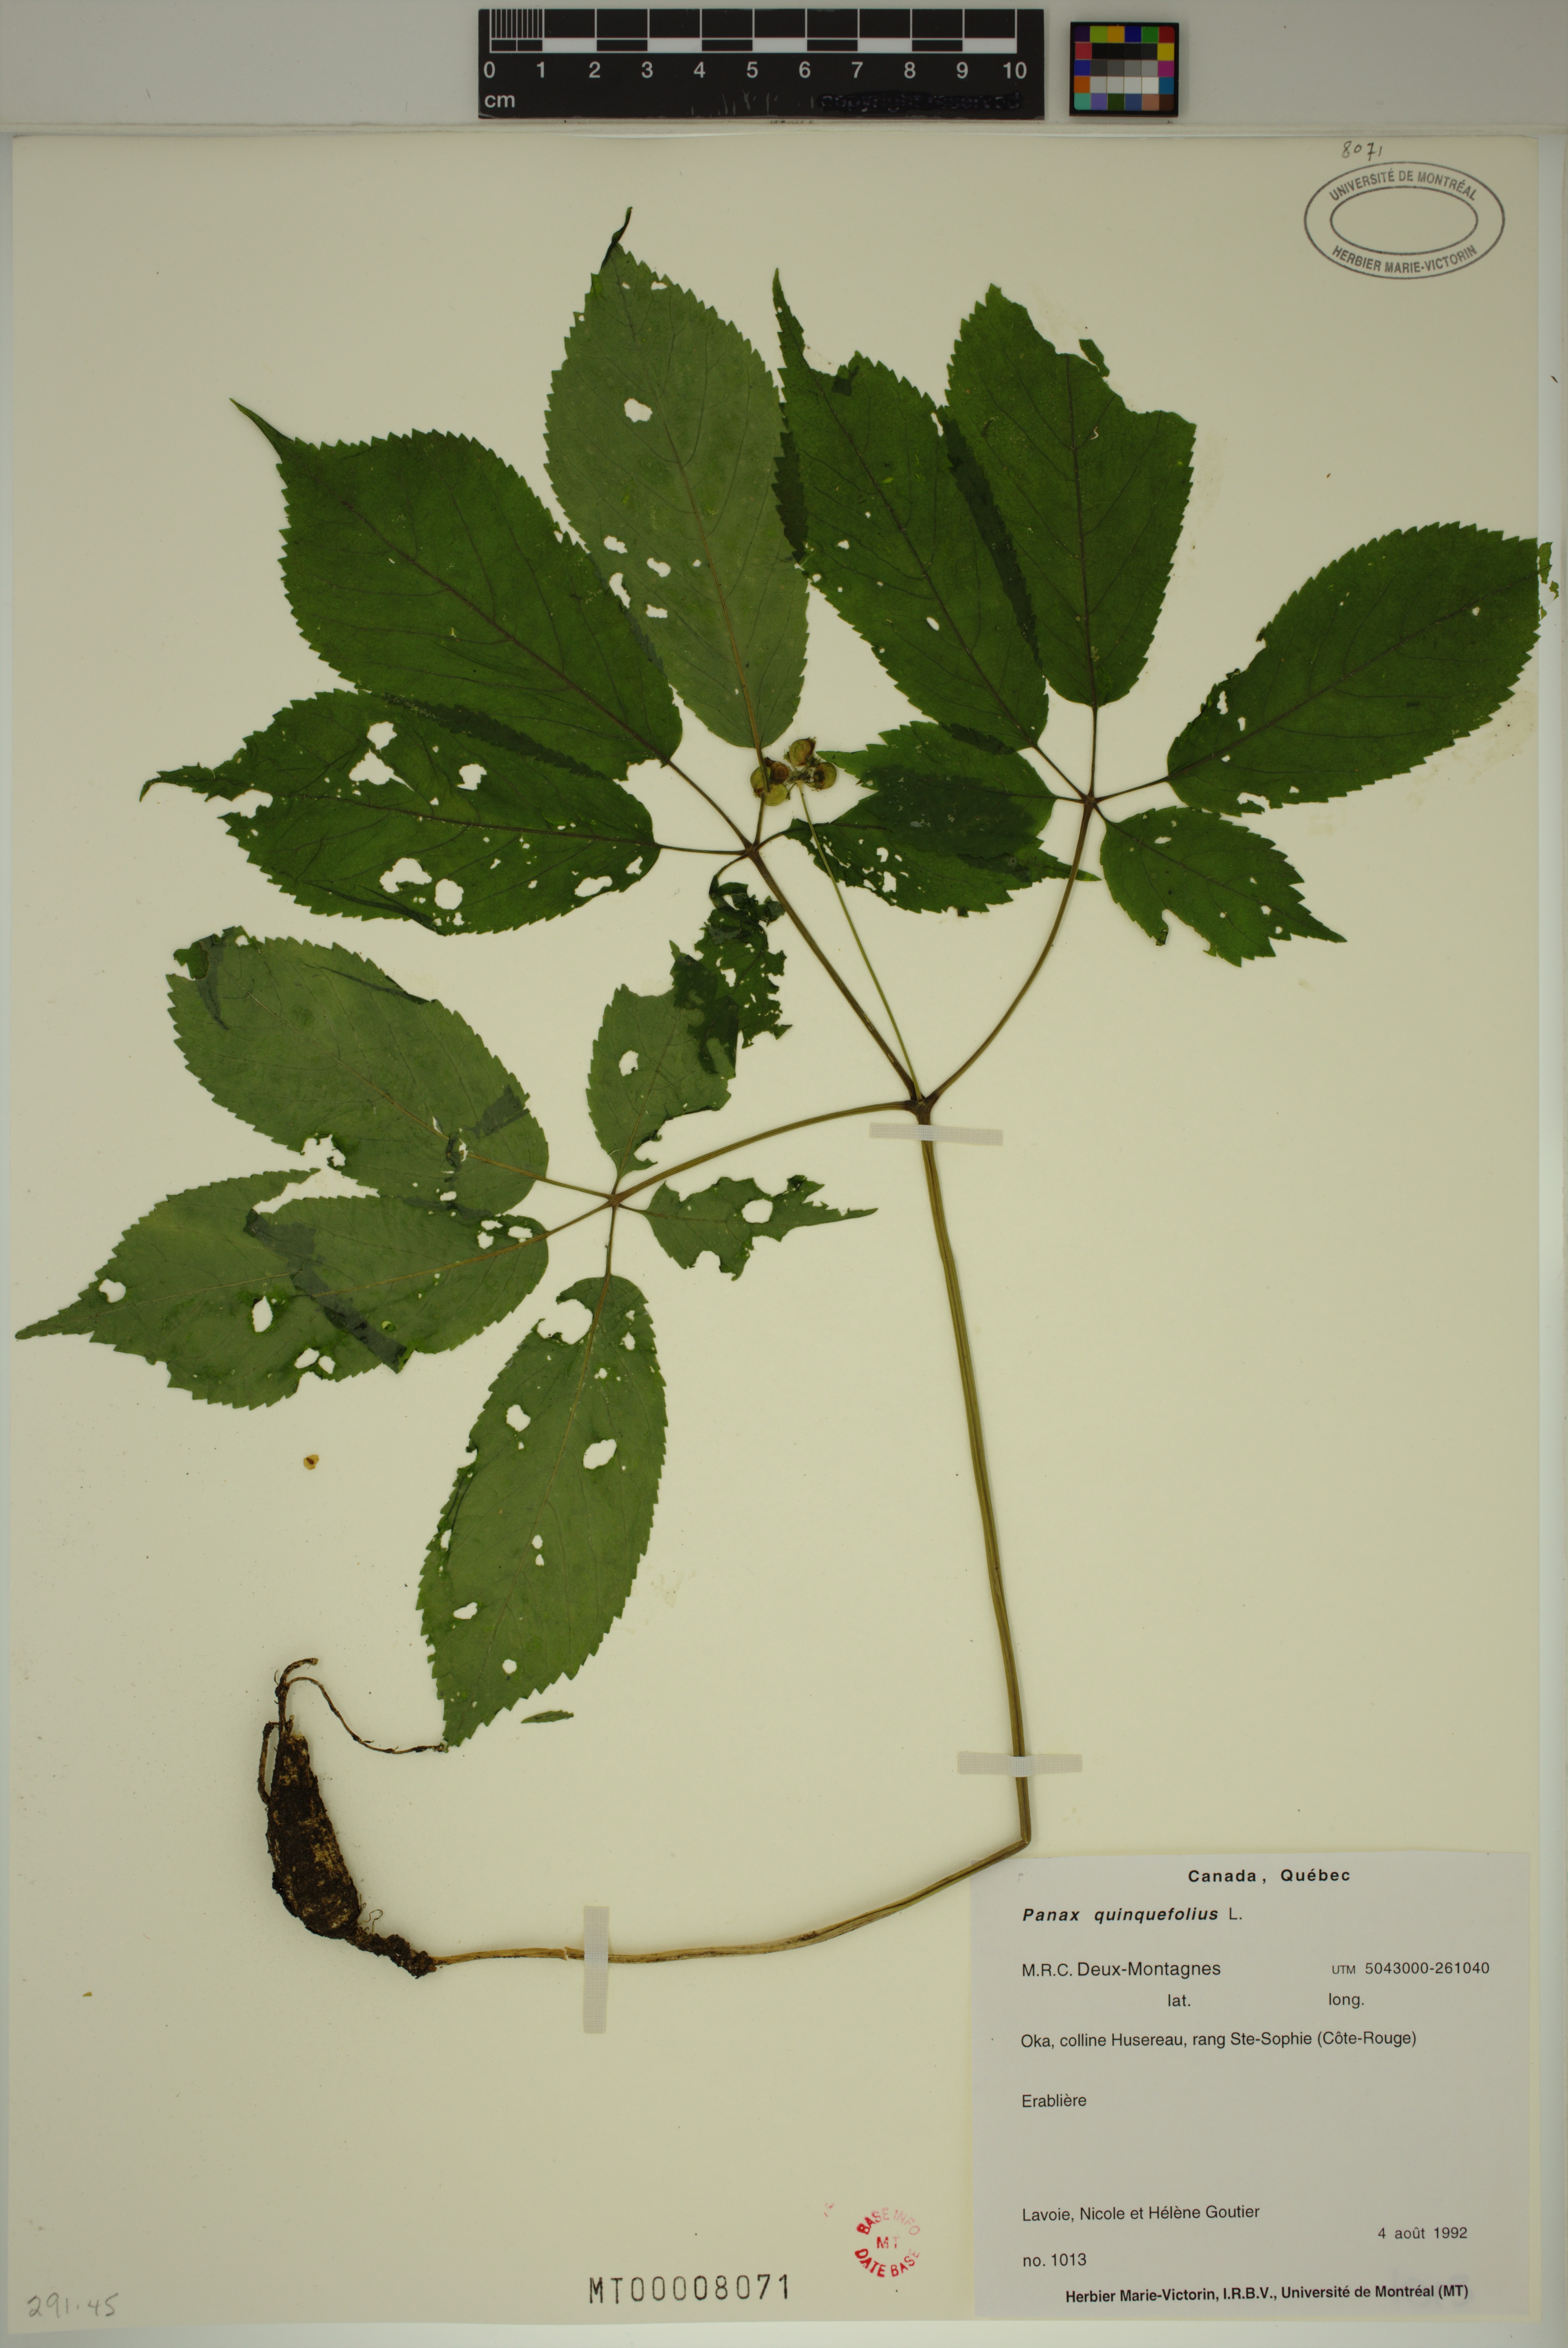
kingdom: Plantae
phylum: Tracheophyta
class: Magnoliopsida
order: Apiales
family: Araliaceae
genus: Panax
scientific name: Panax quinquefolius
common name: American ginseng
